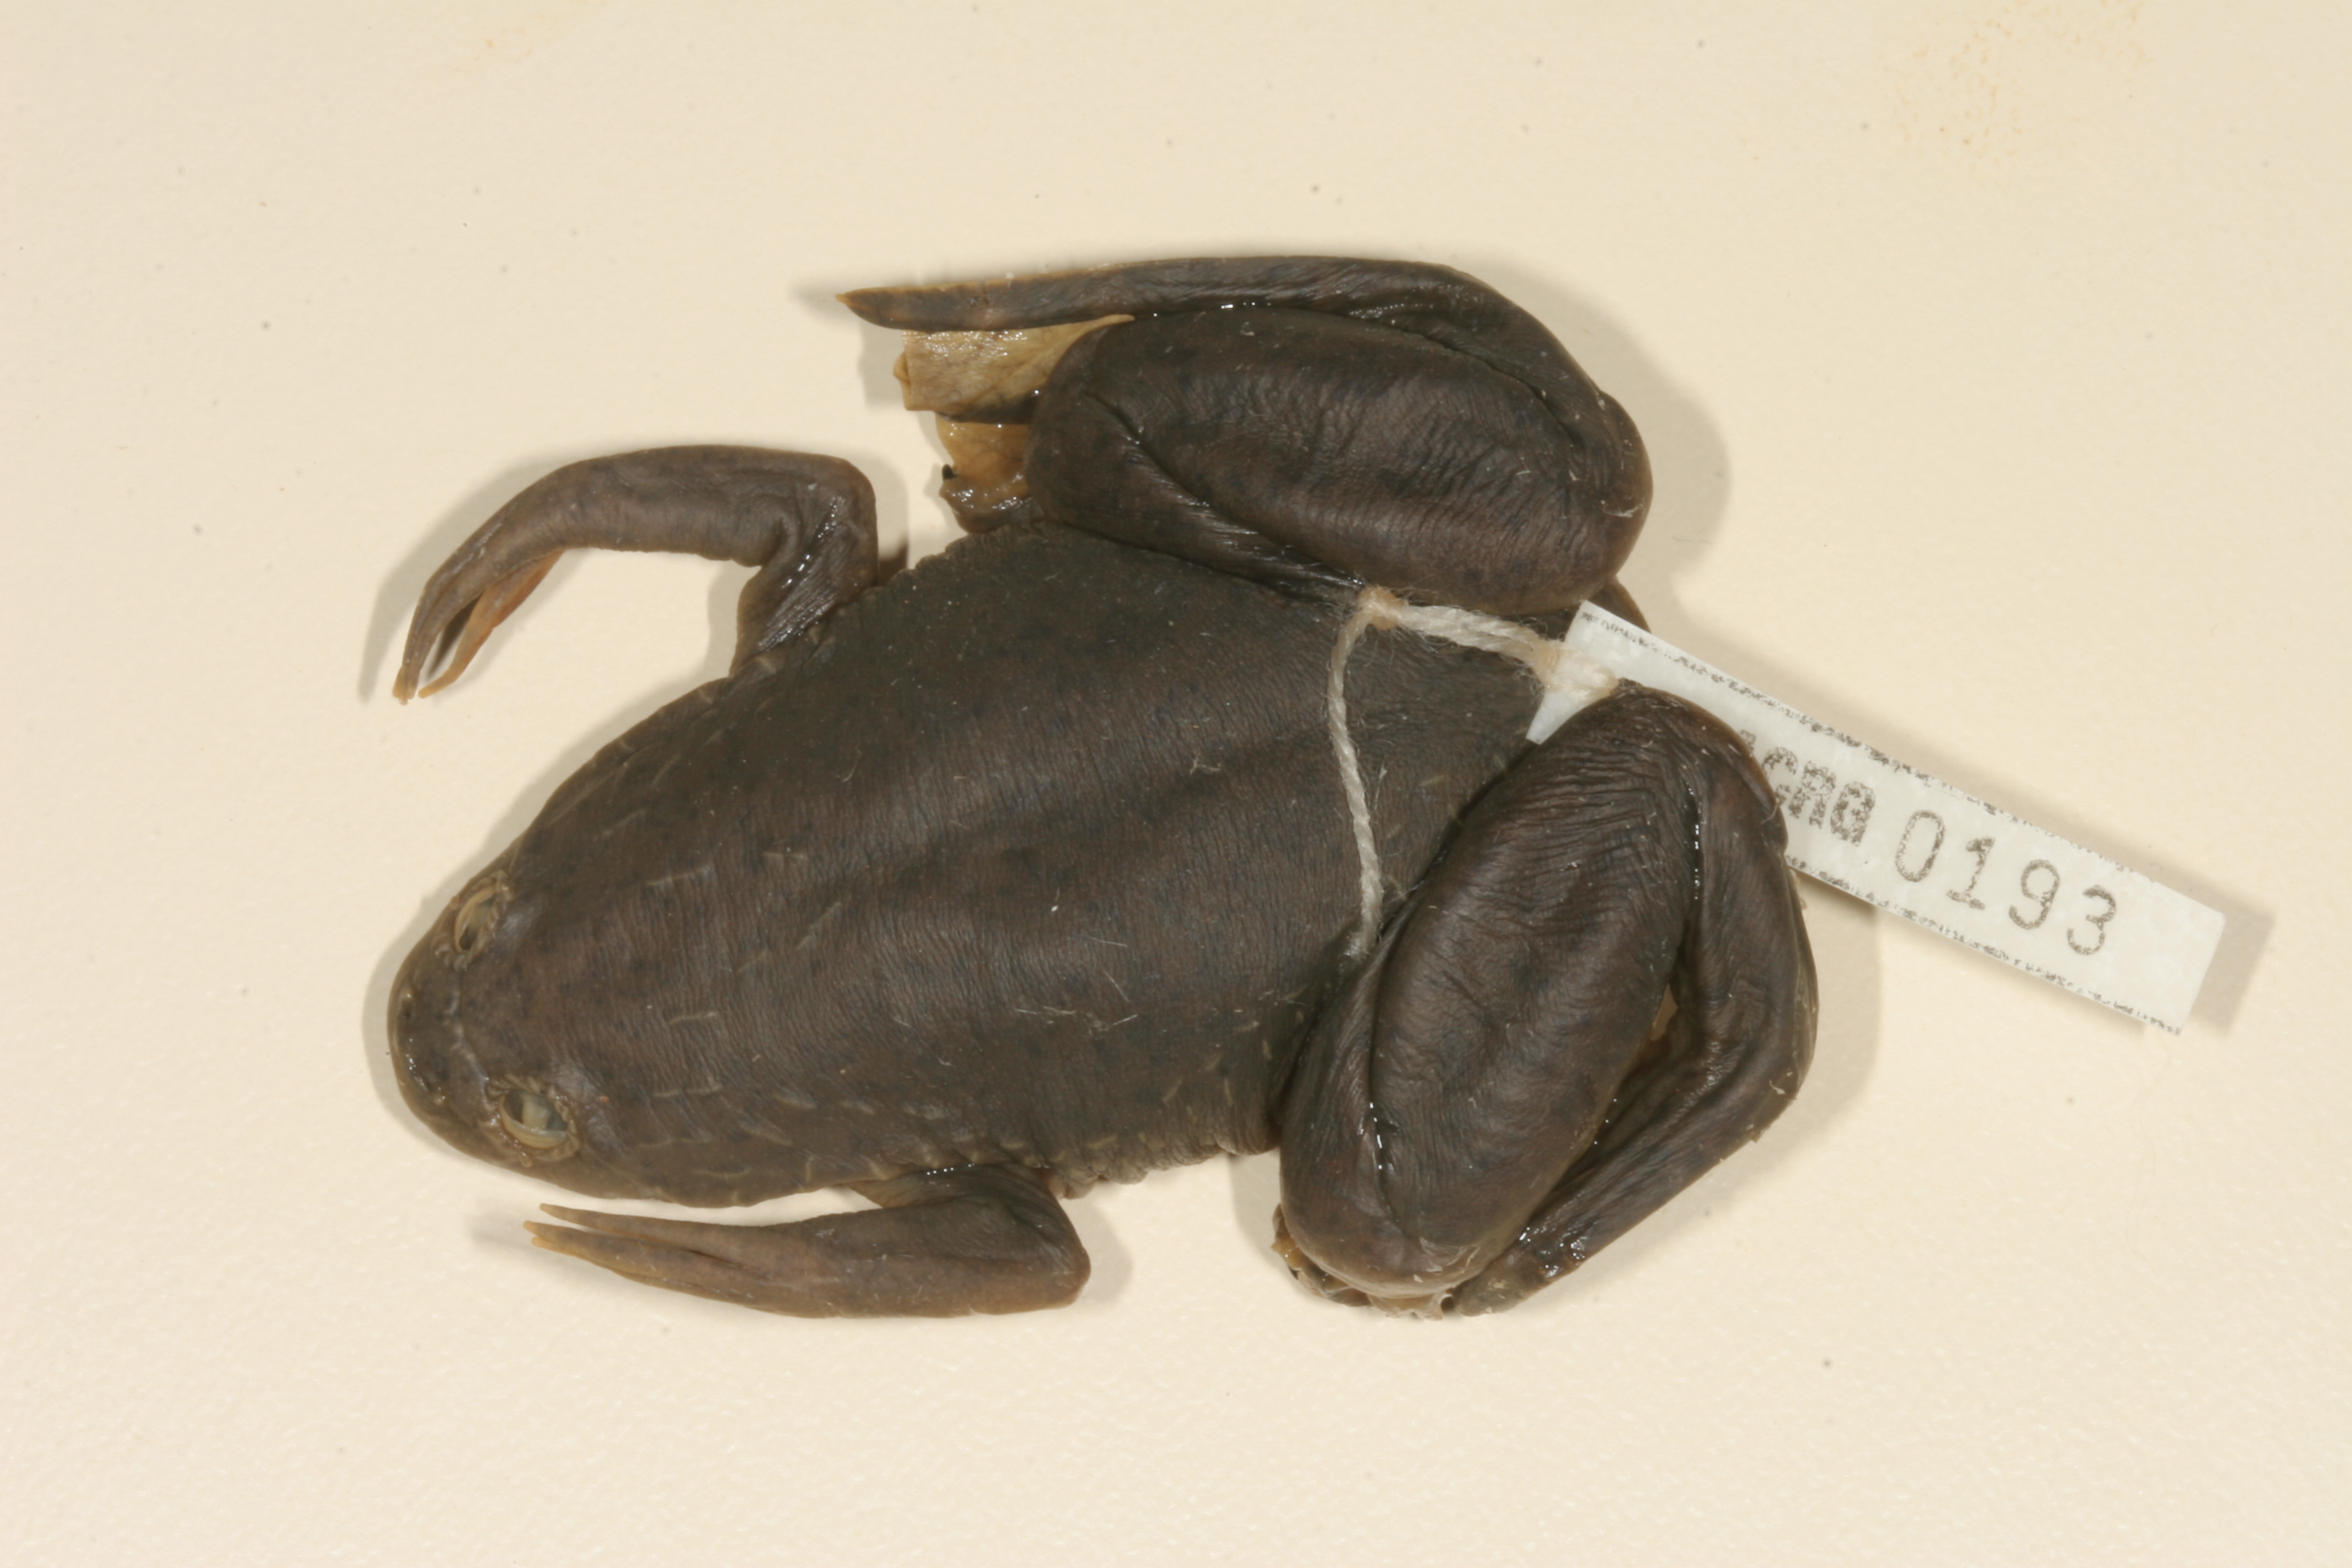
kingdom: Animalia
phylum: Chordata
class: Amphibia
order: Anura
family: Pipidae
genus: Xenopus
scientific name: Xenopus laevis
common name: African clawed frog
